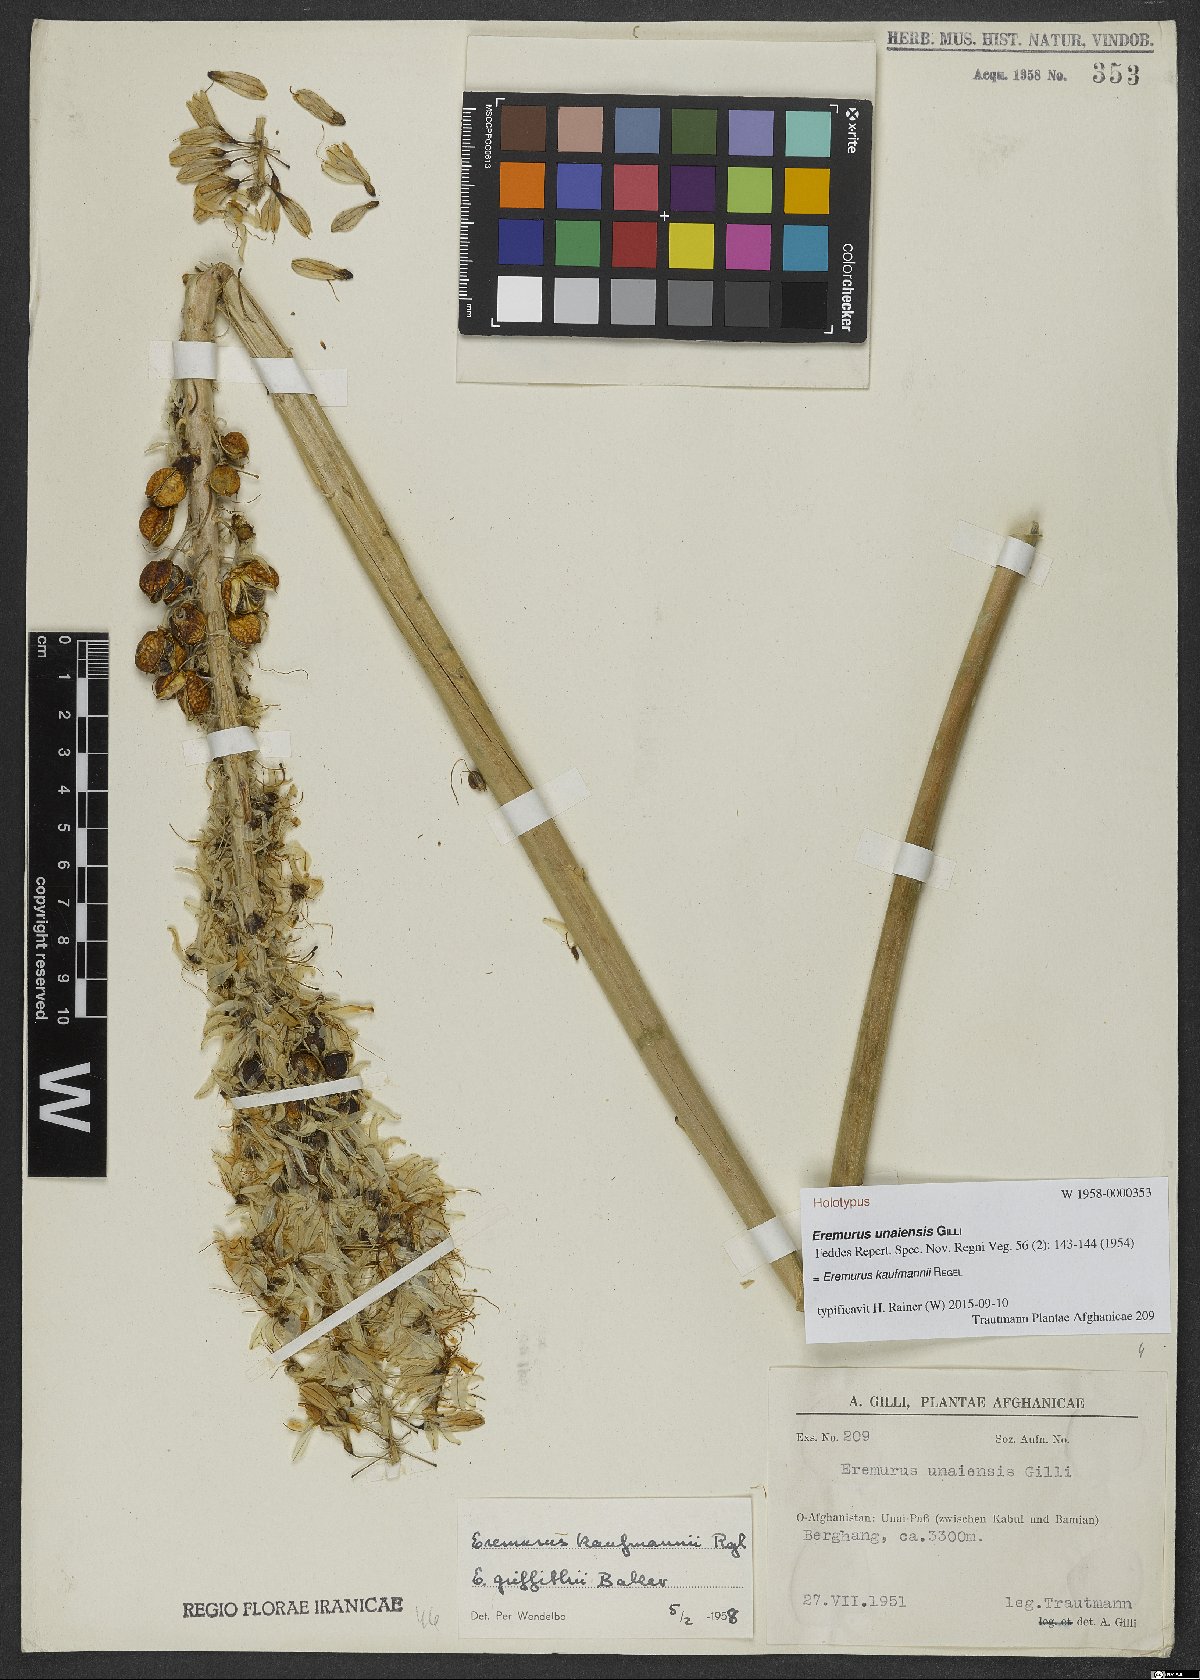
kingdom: Plantae
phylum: Tracheophyta
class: Liliopsida
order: Asparagales
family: Asphodelaceae
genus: Eremurus
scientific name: Eremurus kaufmannii
